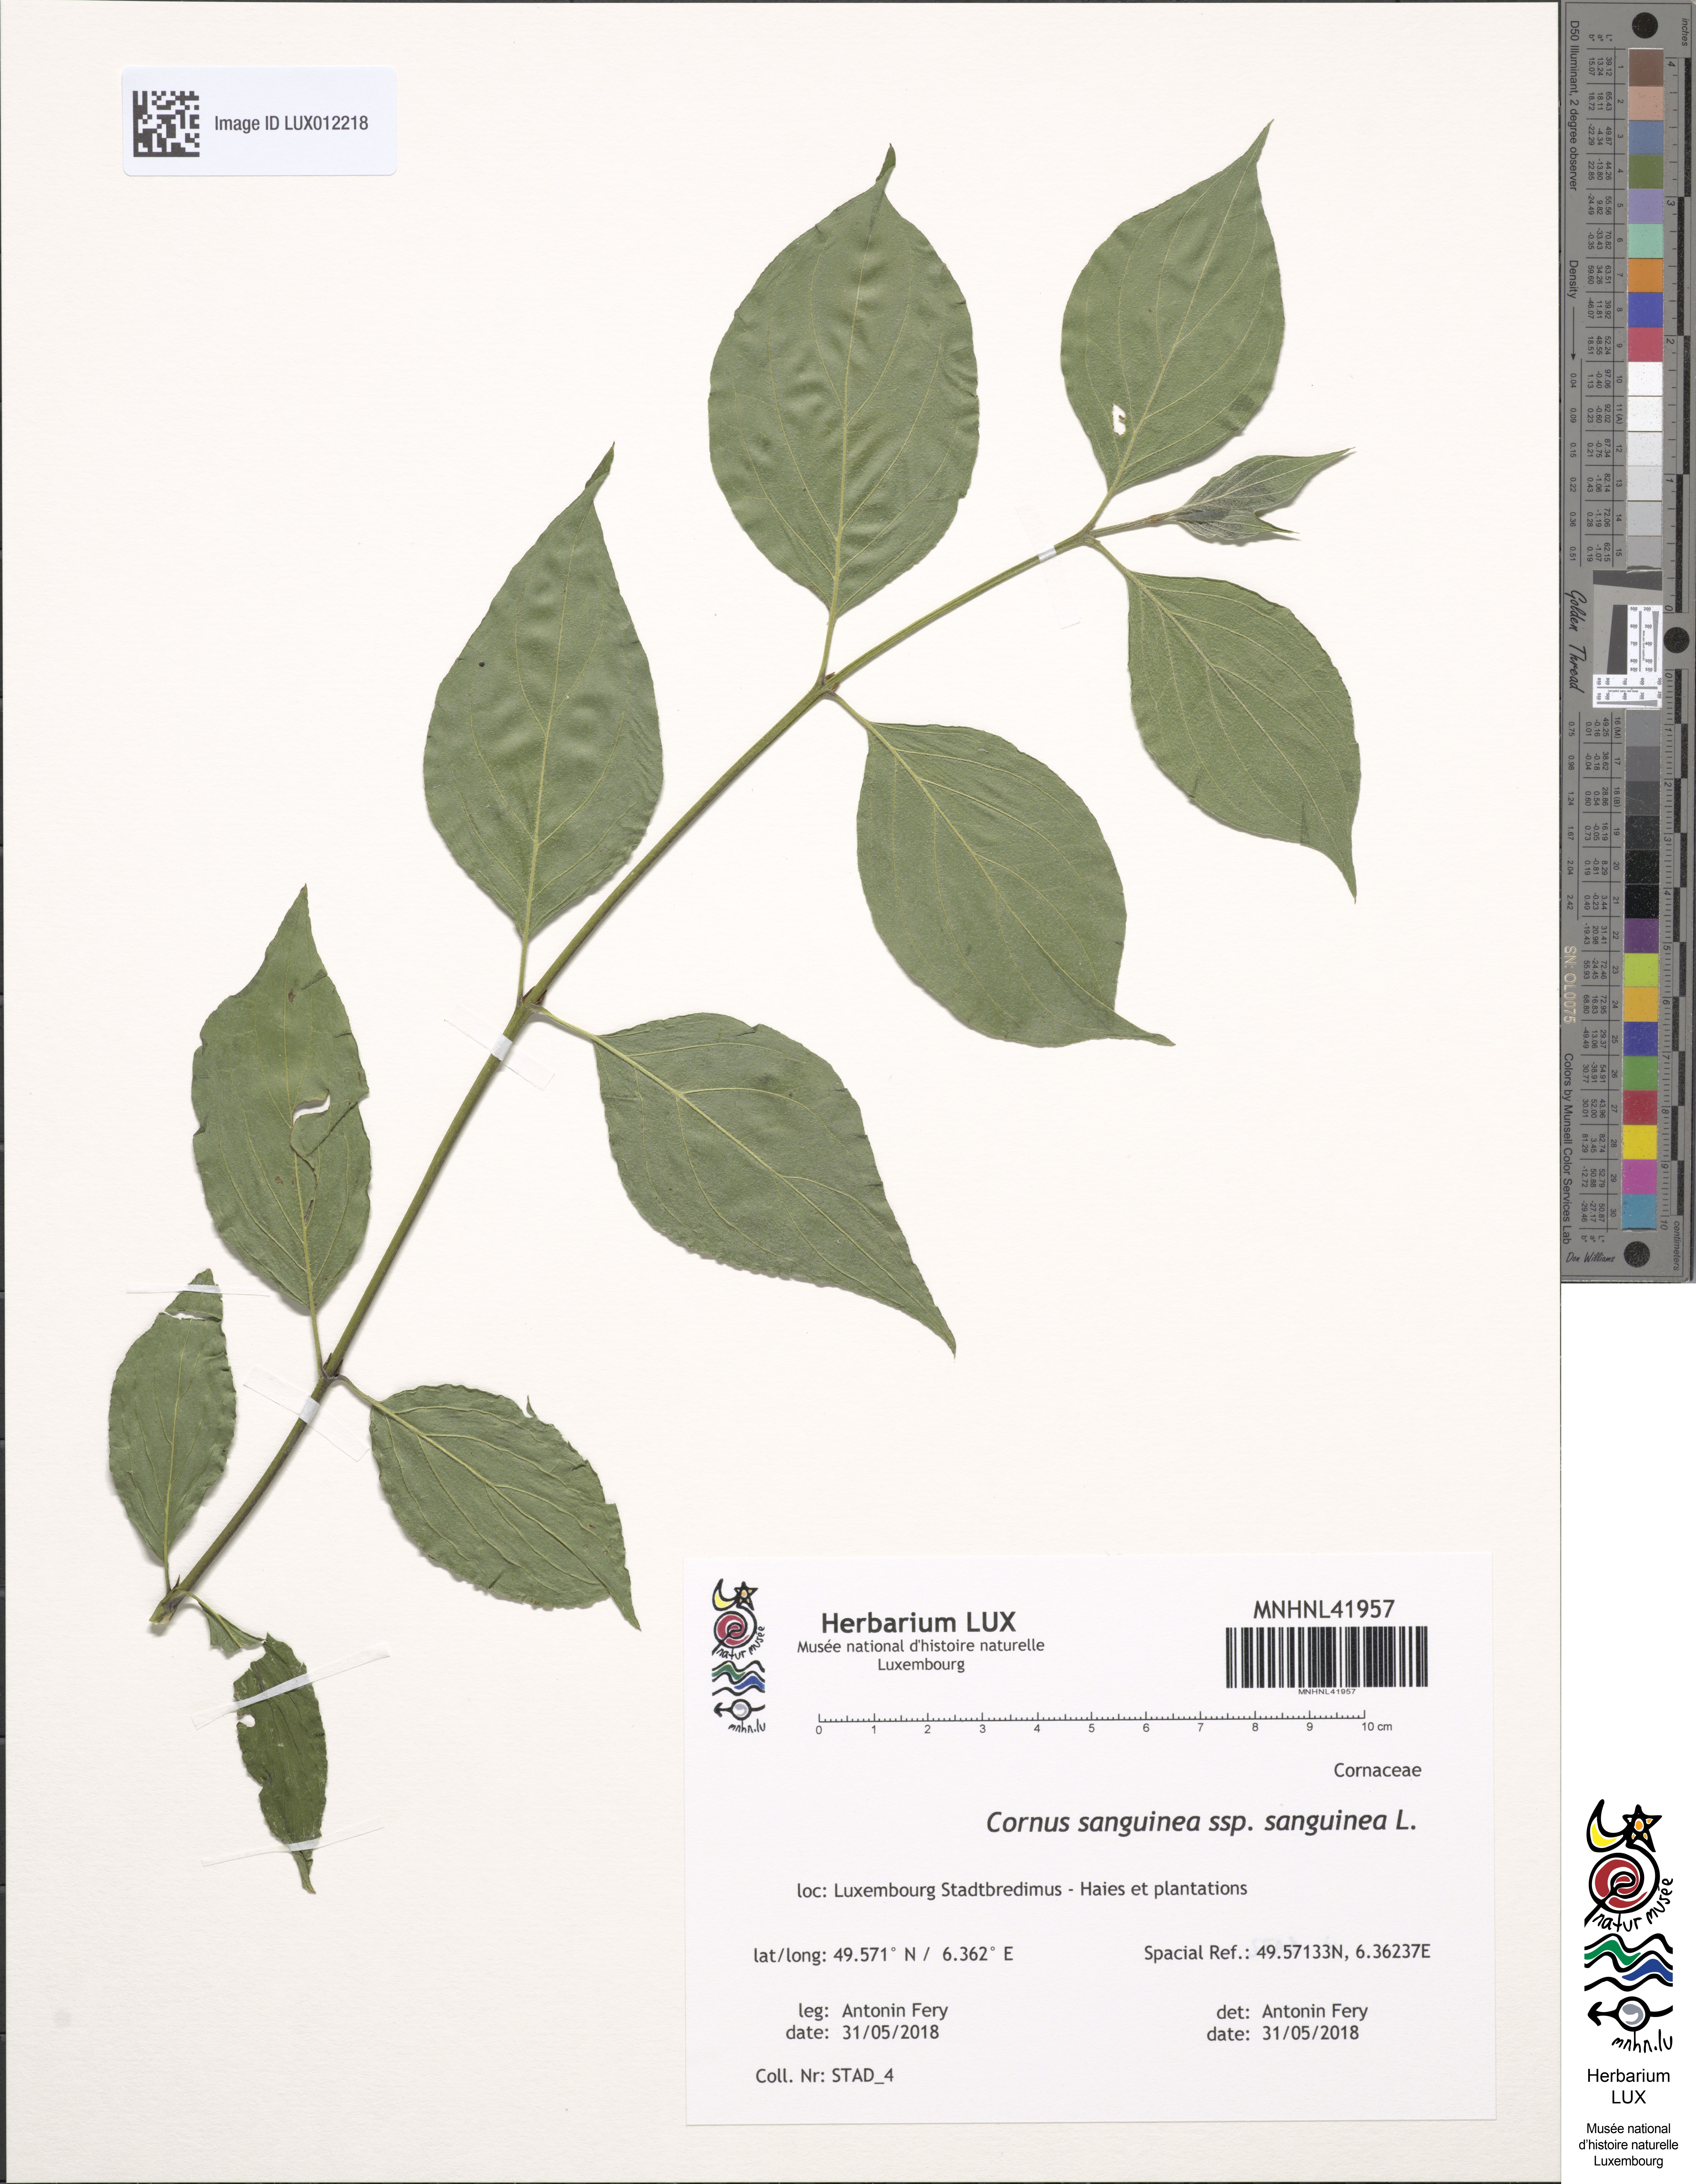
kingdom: Plantae
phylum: Tracheophyta
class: Magnoliopsida
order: Cornales
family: Cornaceae
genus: Cornus
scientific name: Cornus sanguinea
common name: Dogwood
